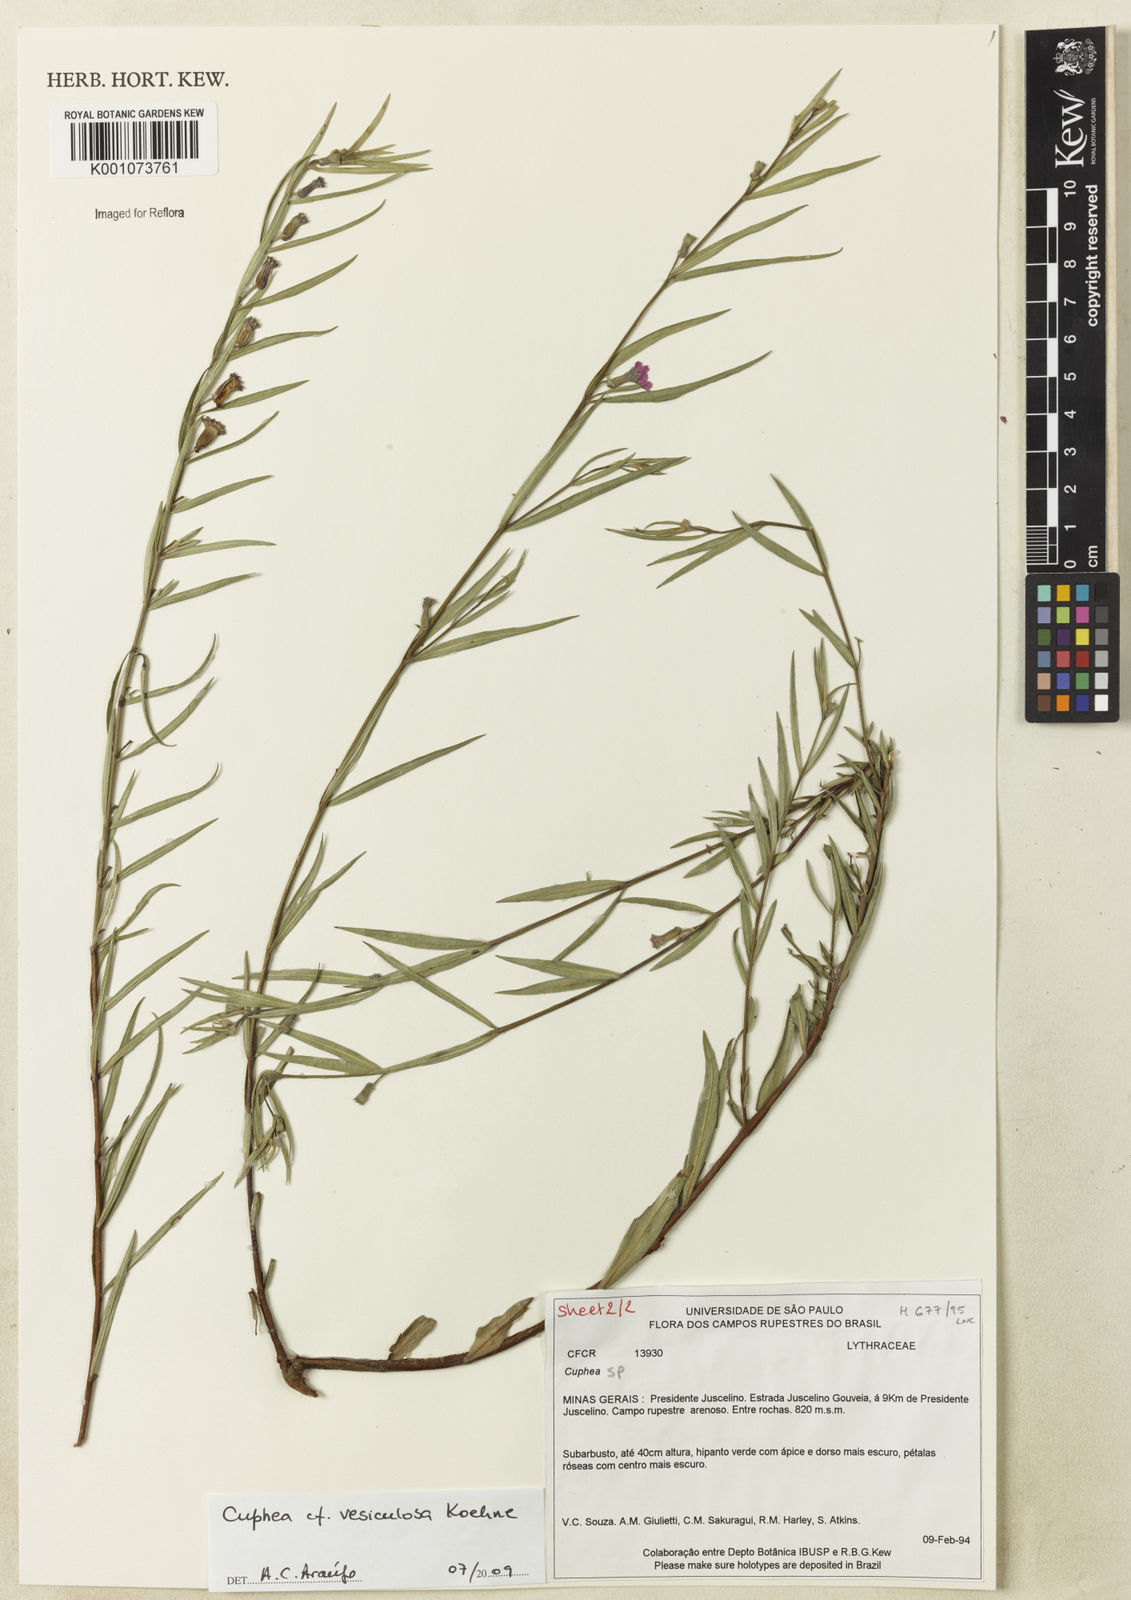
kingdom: Plantae
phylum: Tracheophyta
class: Magnoliopsida
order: Myrtales
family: Lythraceae
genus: Cuphea
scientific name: Cuphea vesiculosa
